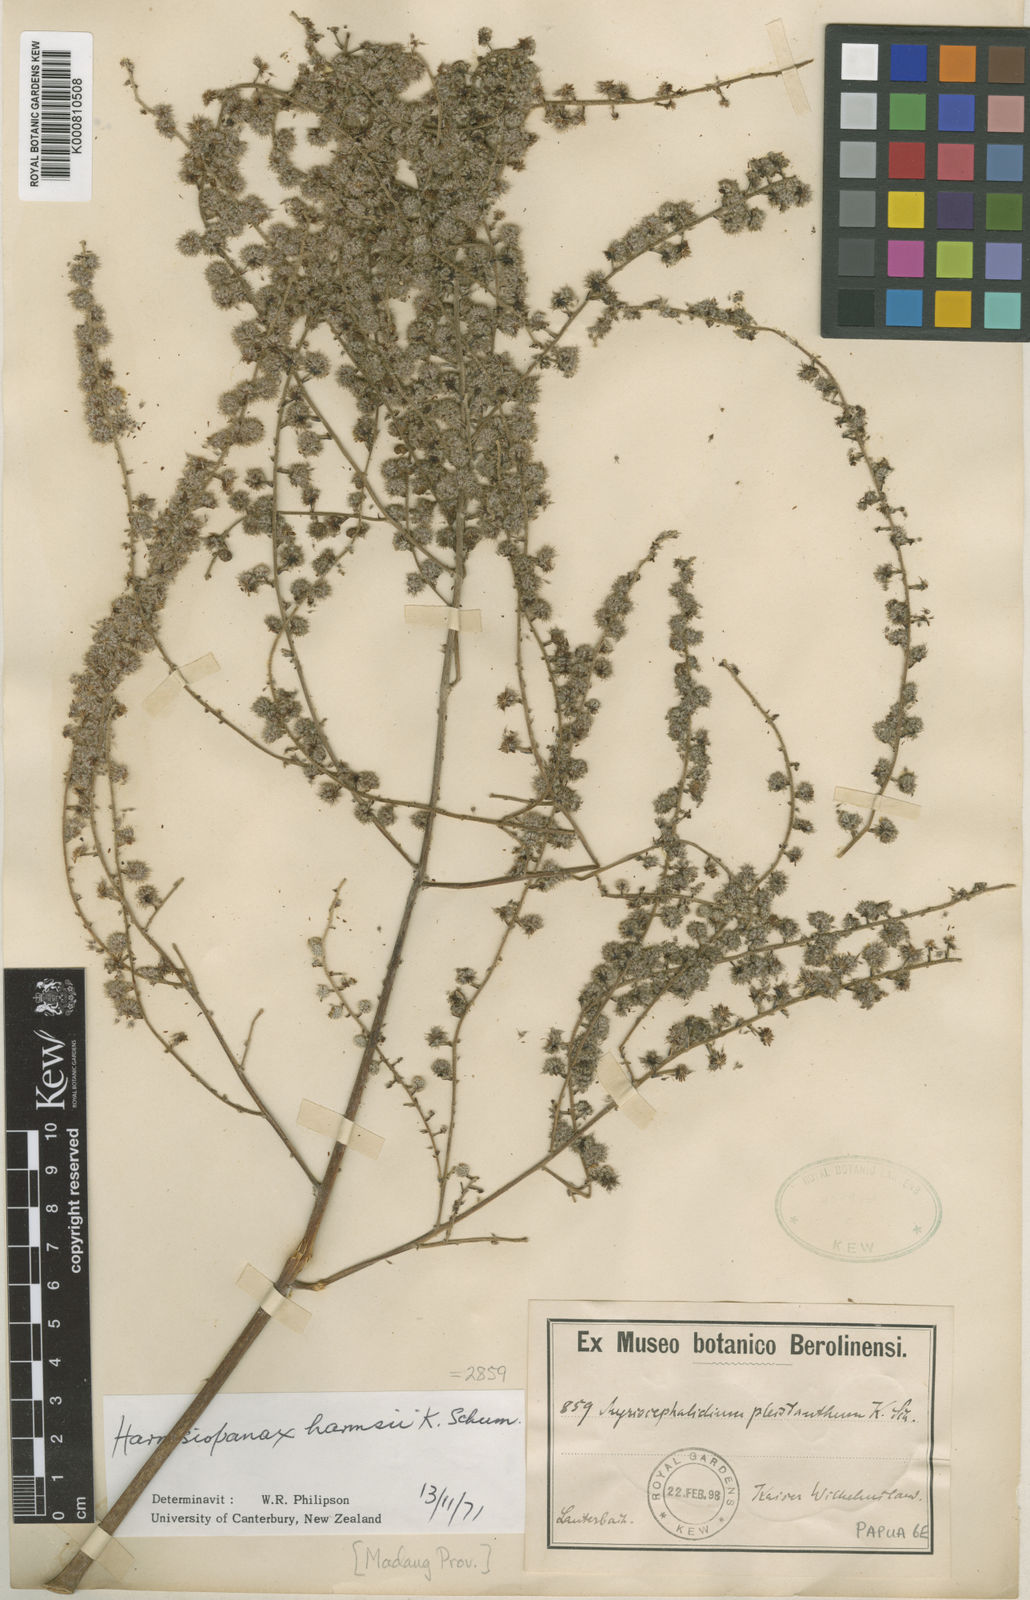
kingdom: Plantae
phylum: Tracheophyta
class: Magnoliopsida
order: Apiales
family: Araliaceae
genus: Harmsiopanax
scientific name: Harmsiopanax harmsii
